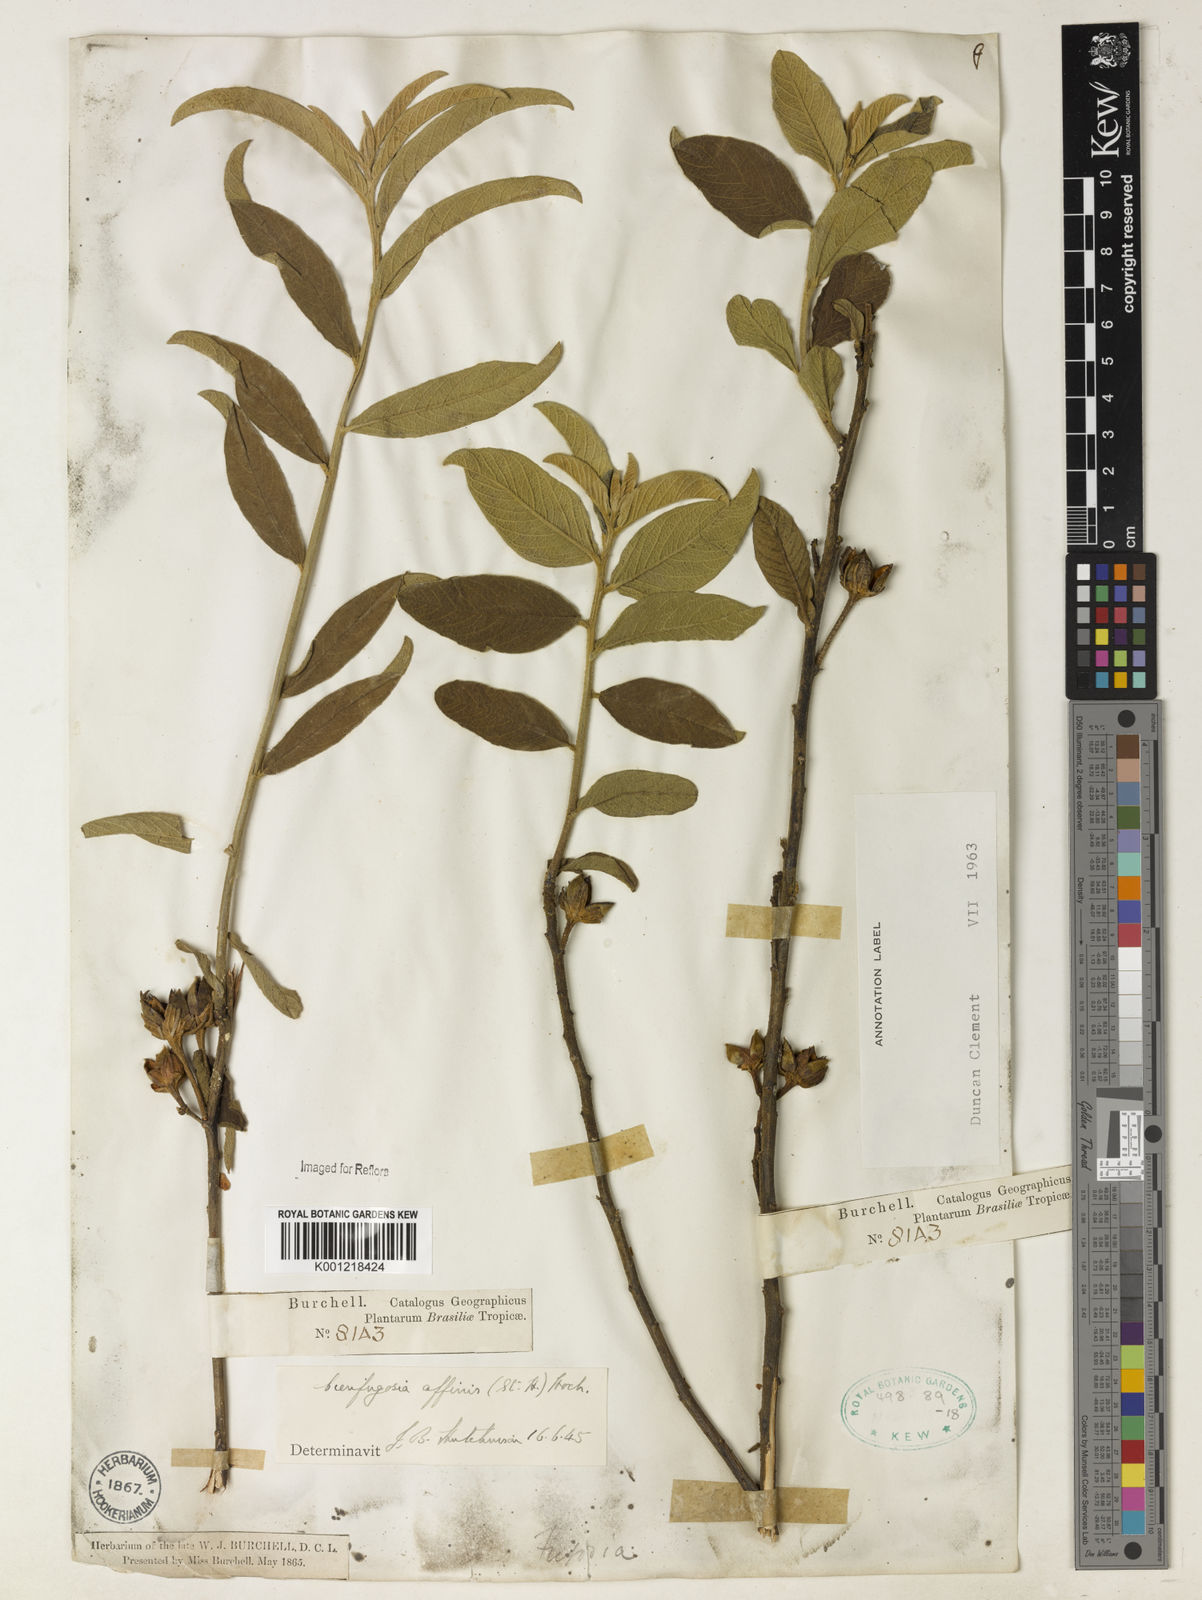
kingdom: Plantae
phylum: Tracheophyta
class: Magnoliopsida
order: Malvales
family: Malvaceae
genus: Cienfuegosia
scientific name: Cienfuegosia affinis
